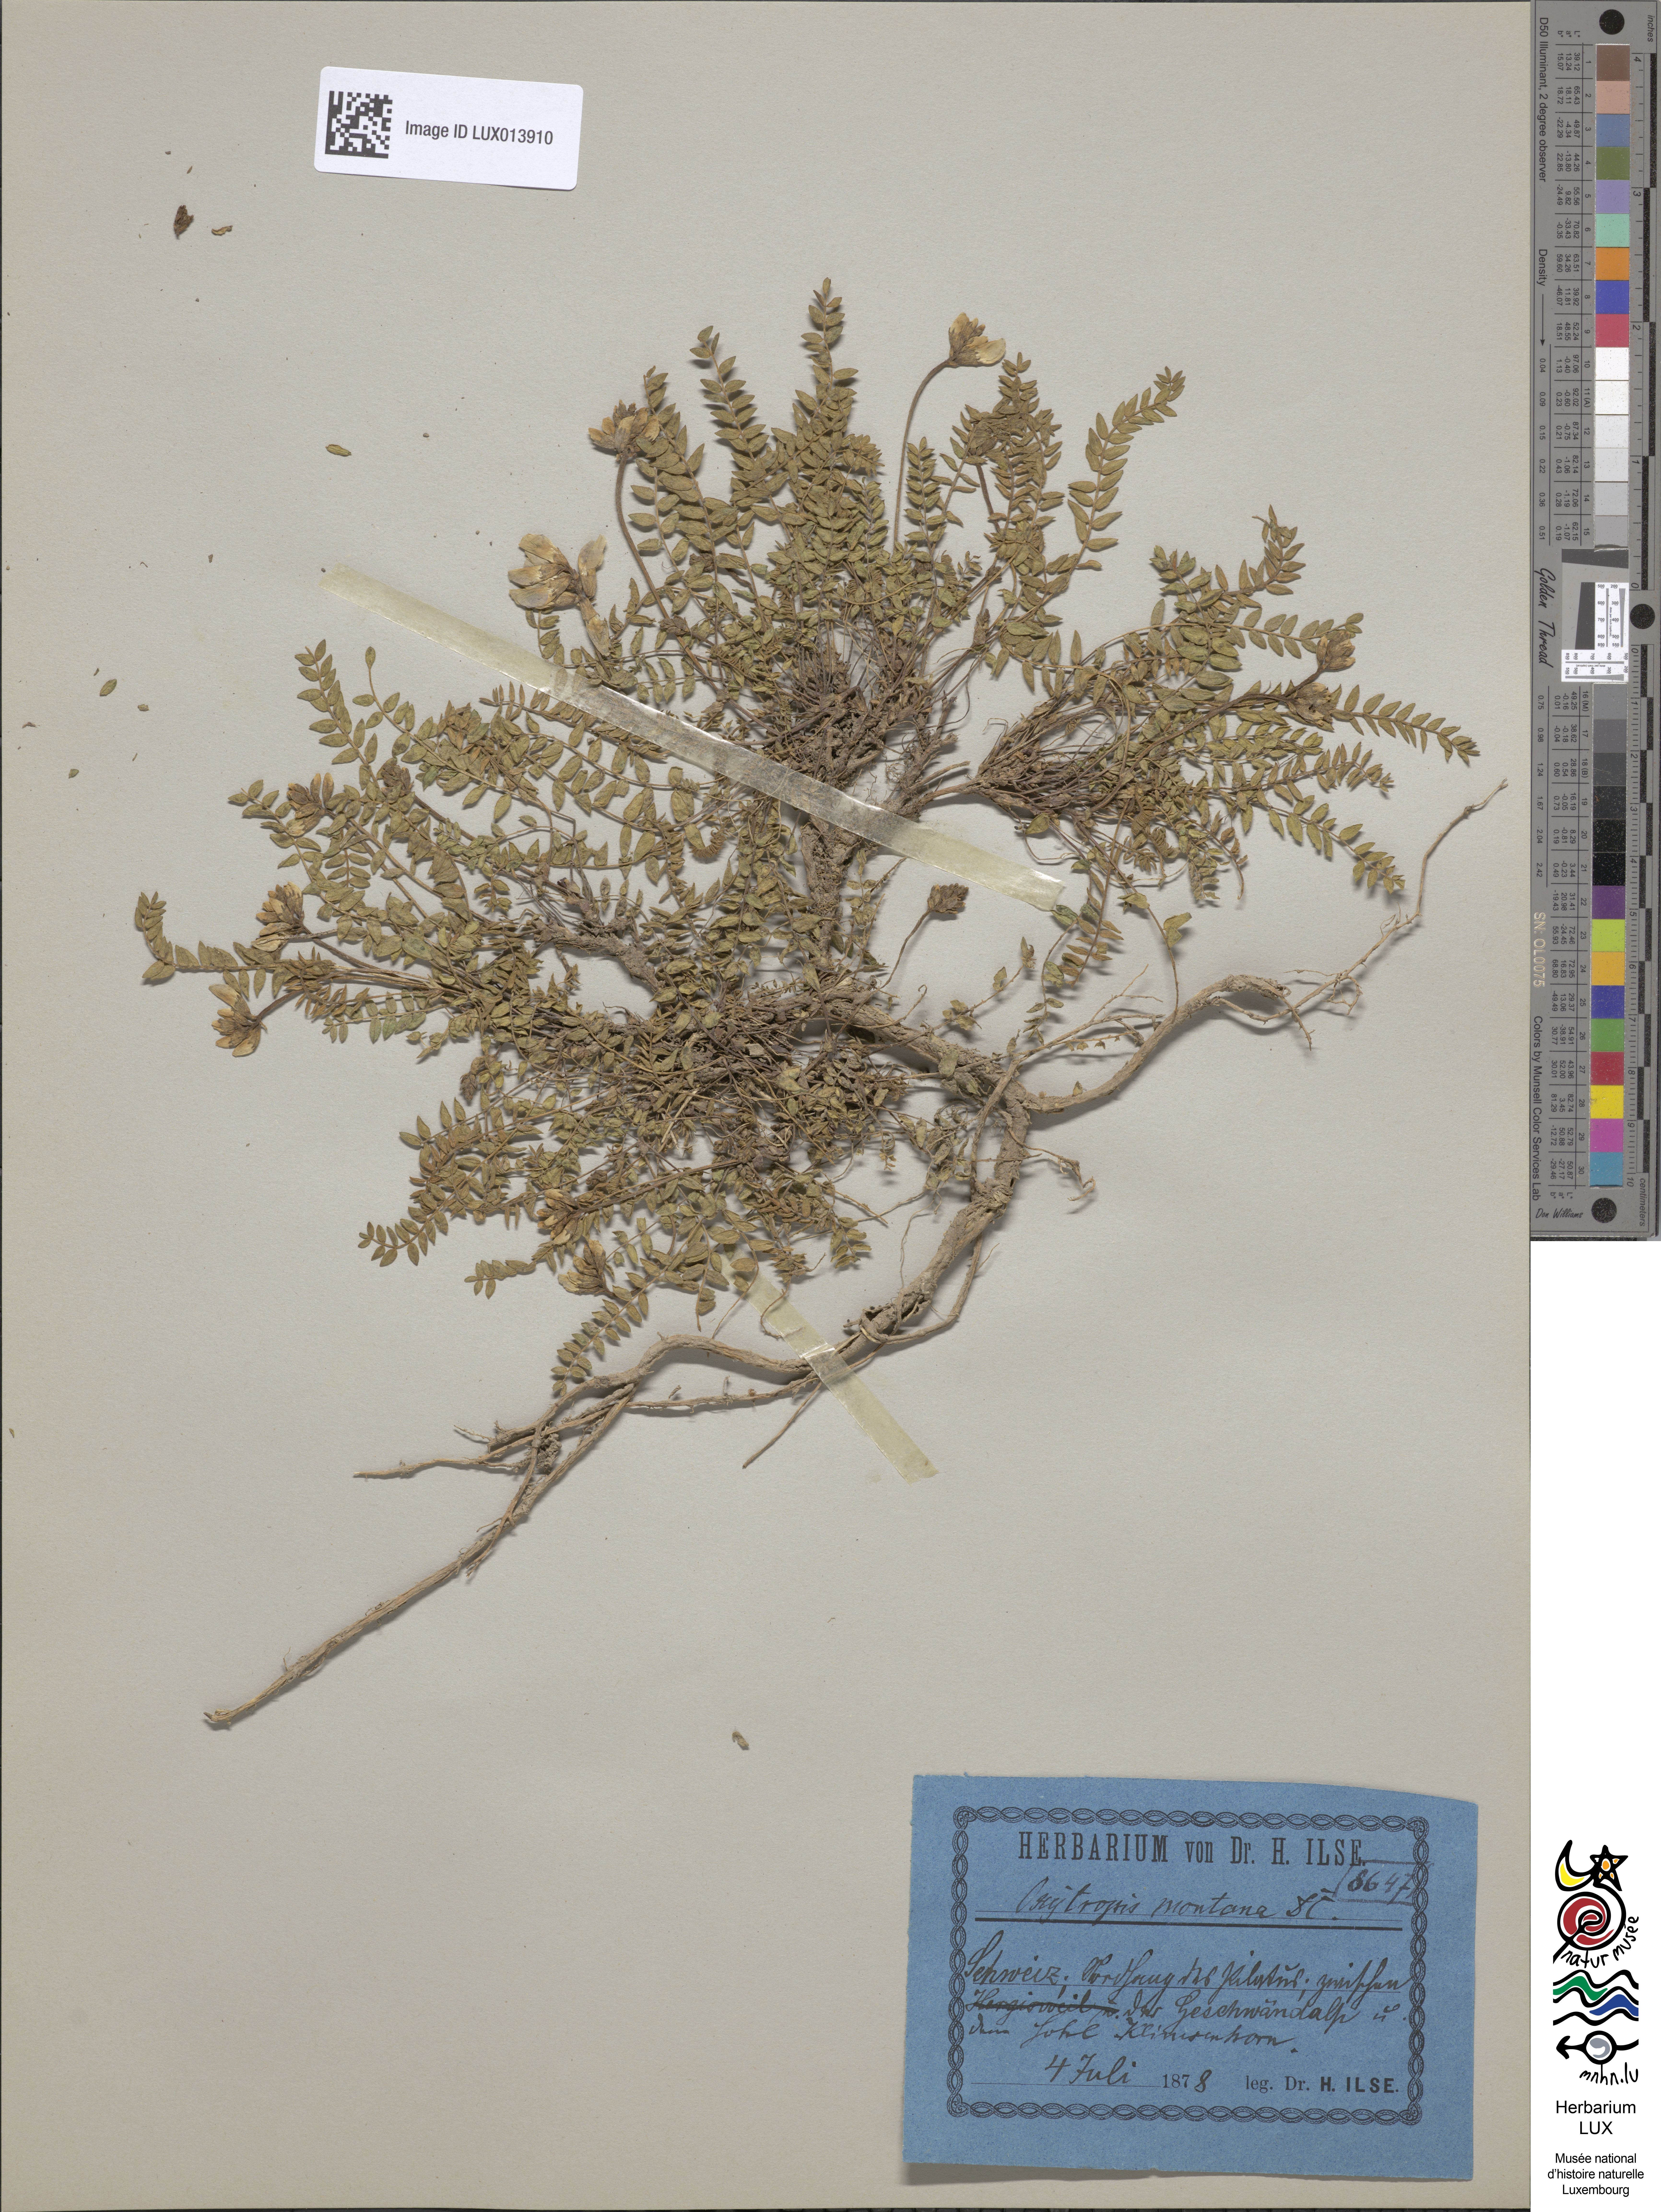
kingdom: Plantae
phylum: Tracheophyta
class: Magnoliopsida
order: Fabales
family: Fabaceae
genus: Oxytropis
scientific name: Oxytropis amethystea
